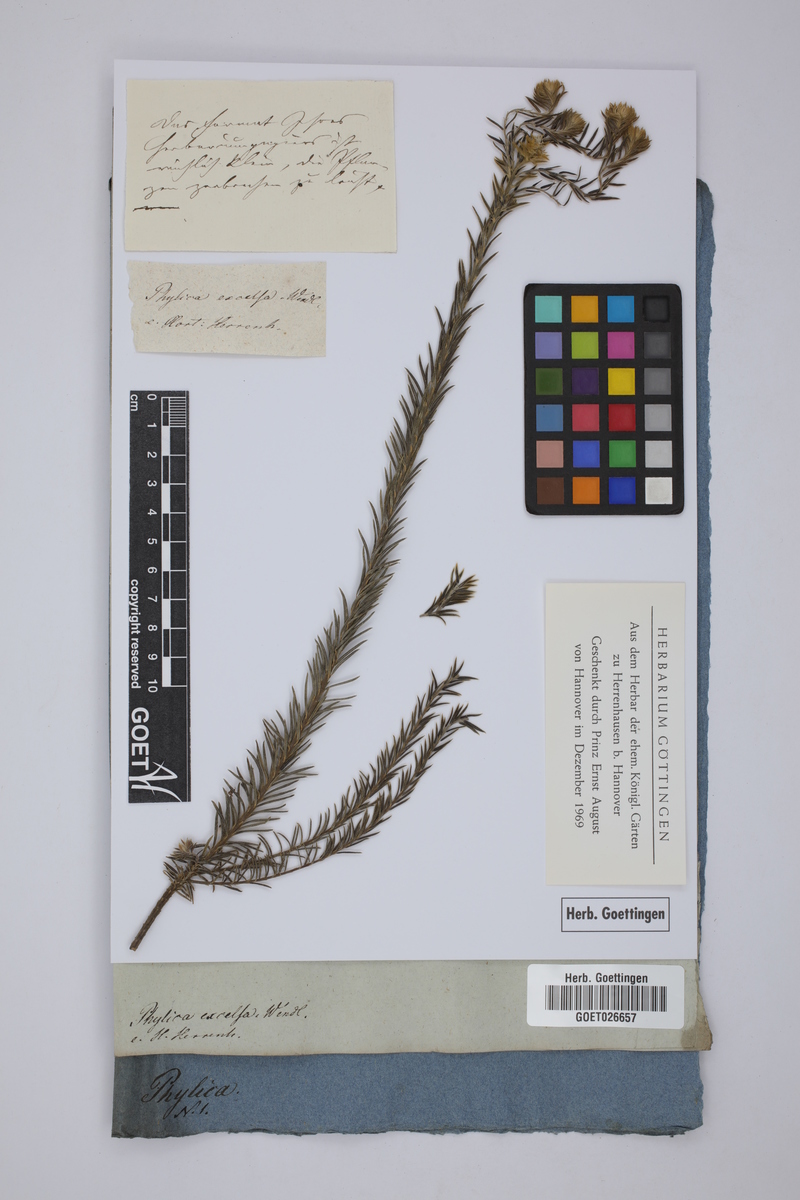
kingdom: Plantae
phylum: Tracheophyta
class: Magnoliopsida
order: Rosales
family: Rhamnaceae
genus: Phylica
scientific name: Phylica excelsa
